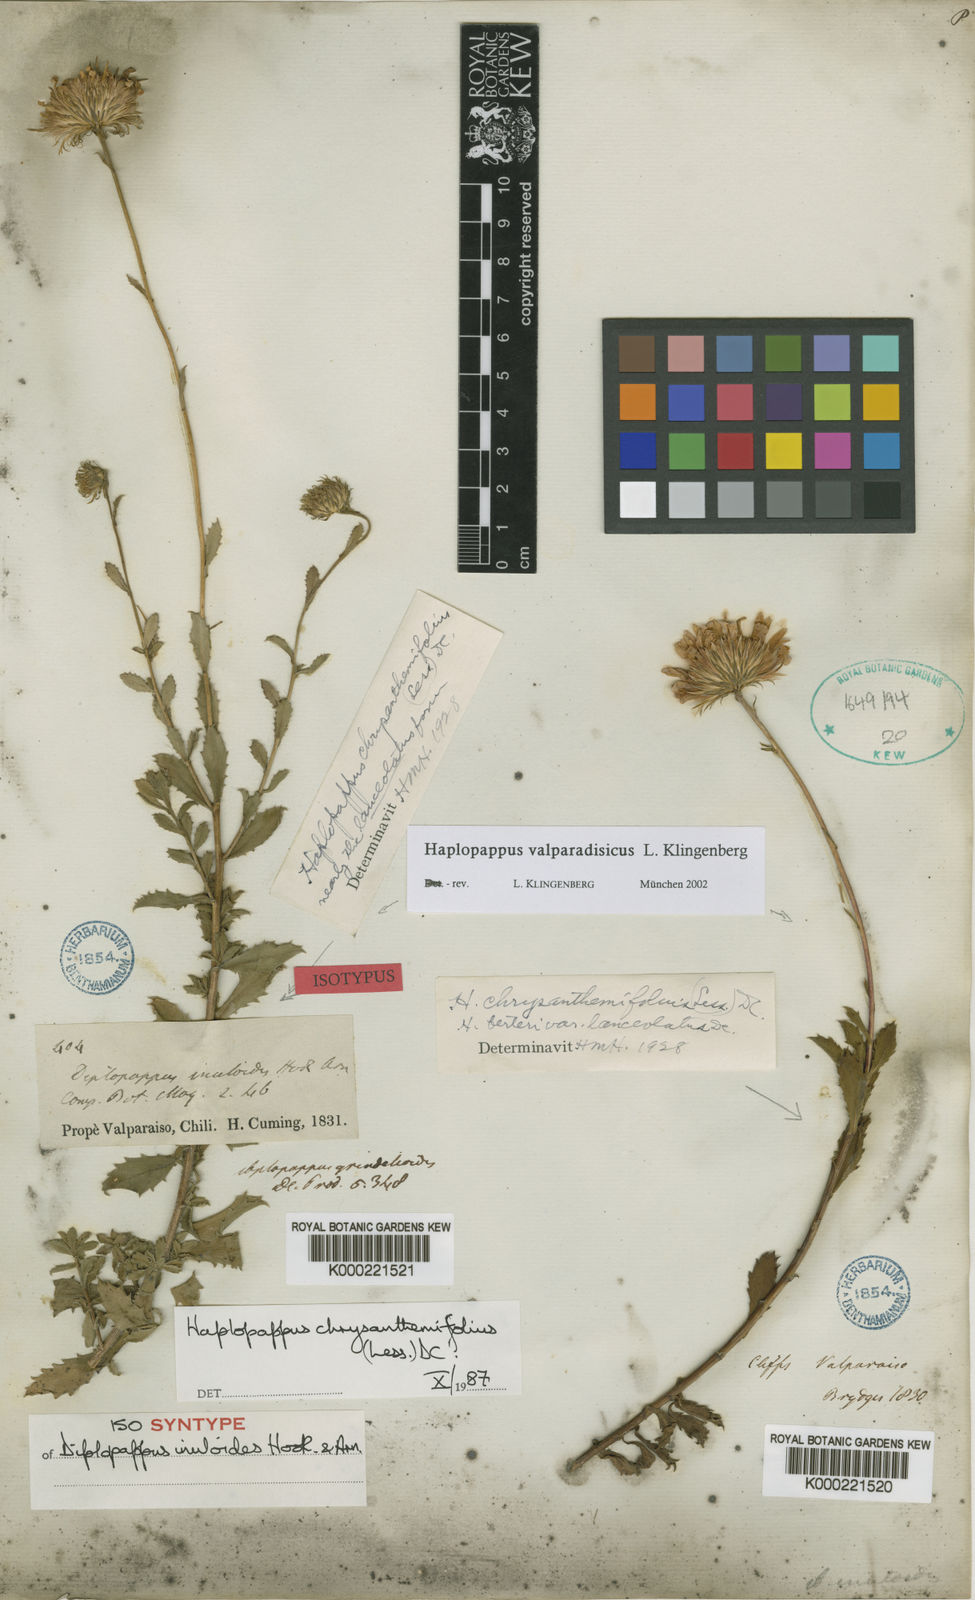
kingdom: Plantae
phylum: Tracheophyta
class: Magnoliopsida
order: Asterales
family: Asteraceae
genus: Haplopappus
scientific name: Haplopappus
